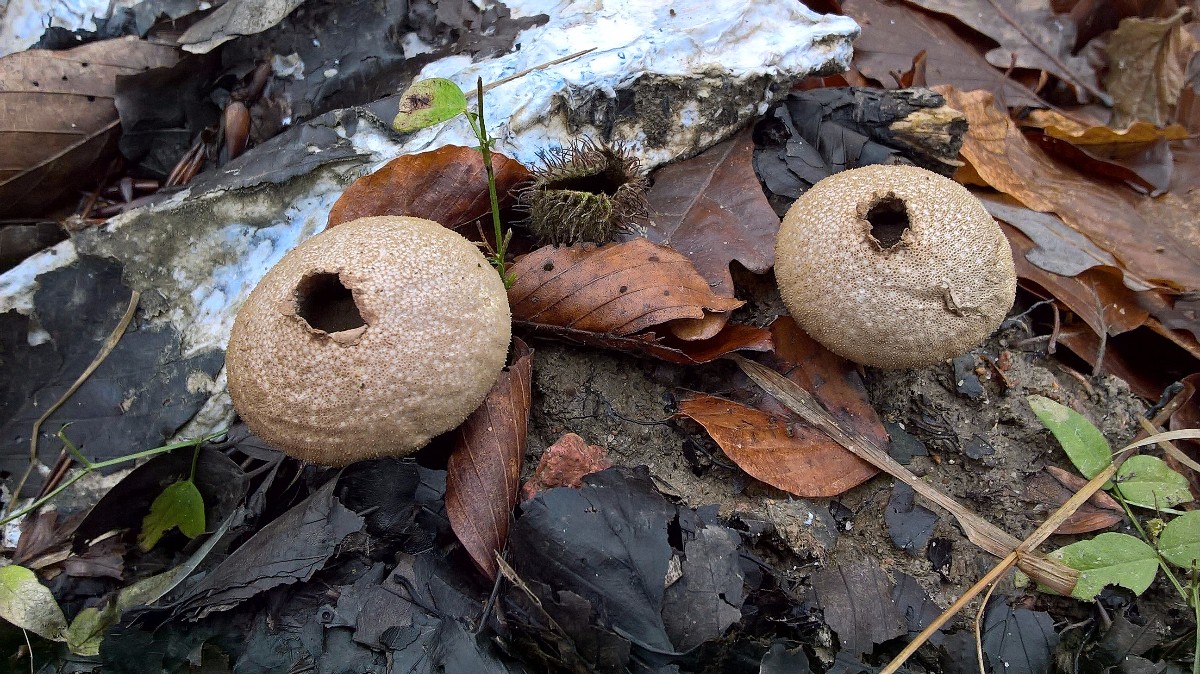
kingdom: Fungi
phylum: Basidiomycota
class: Agaricomycetes
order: Agaricales
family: Lycoperdaceae
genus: Lycoperdon
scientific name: Lycoperdon perlatum
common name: krystal-støvbold
